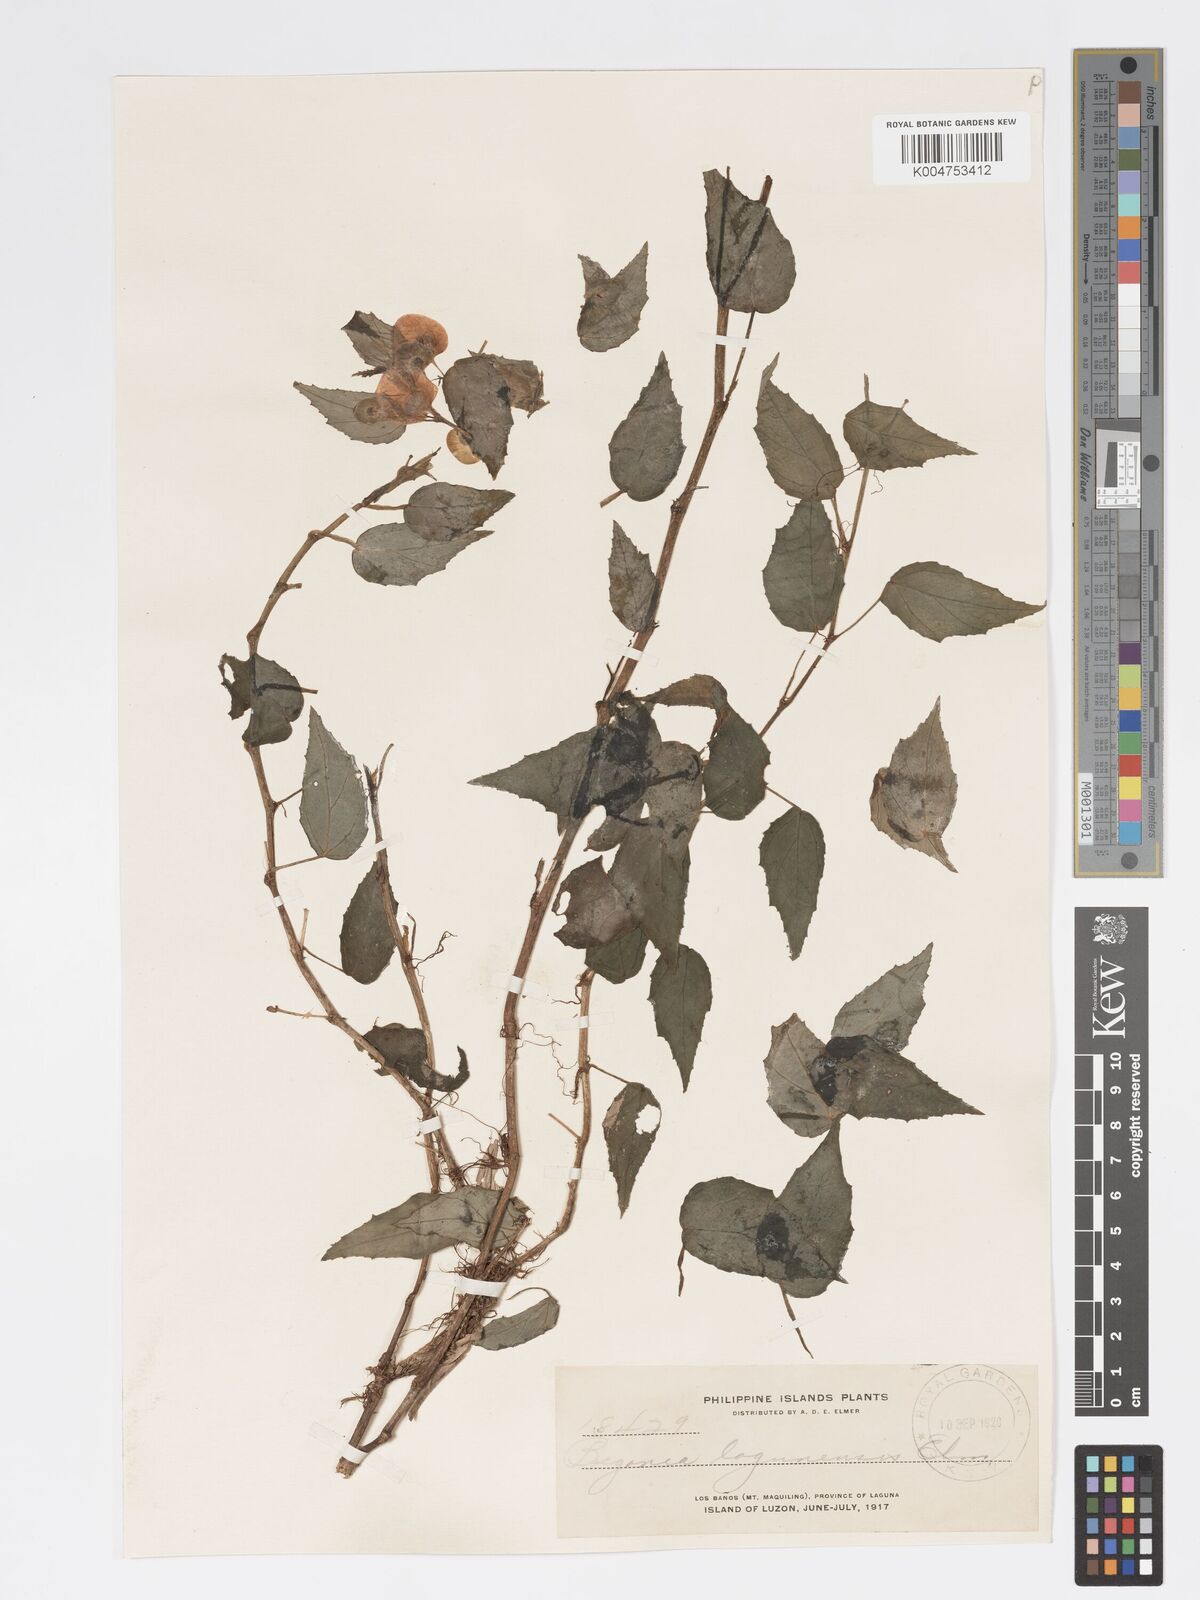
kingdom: Plantae
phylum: Tracheophyta
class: Magnoliopsida
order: Cucurbitales
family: Begoniaceae
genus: Begonia
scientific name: Begonia lagunensis
